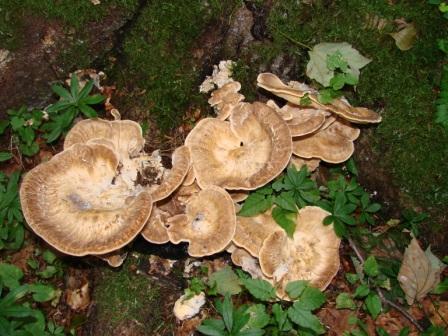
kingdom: Fungi
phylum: Basidiomycota
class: Agaricomycetes
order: Polyporales
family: Meripilaceae
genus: Meripilus
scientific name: Meripilus giganteus
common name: kæmpeporesvamp
